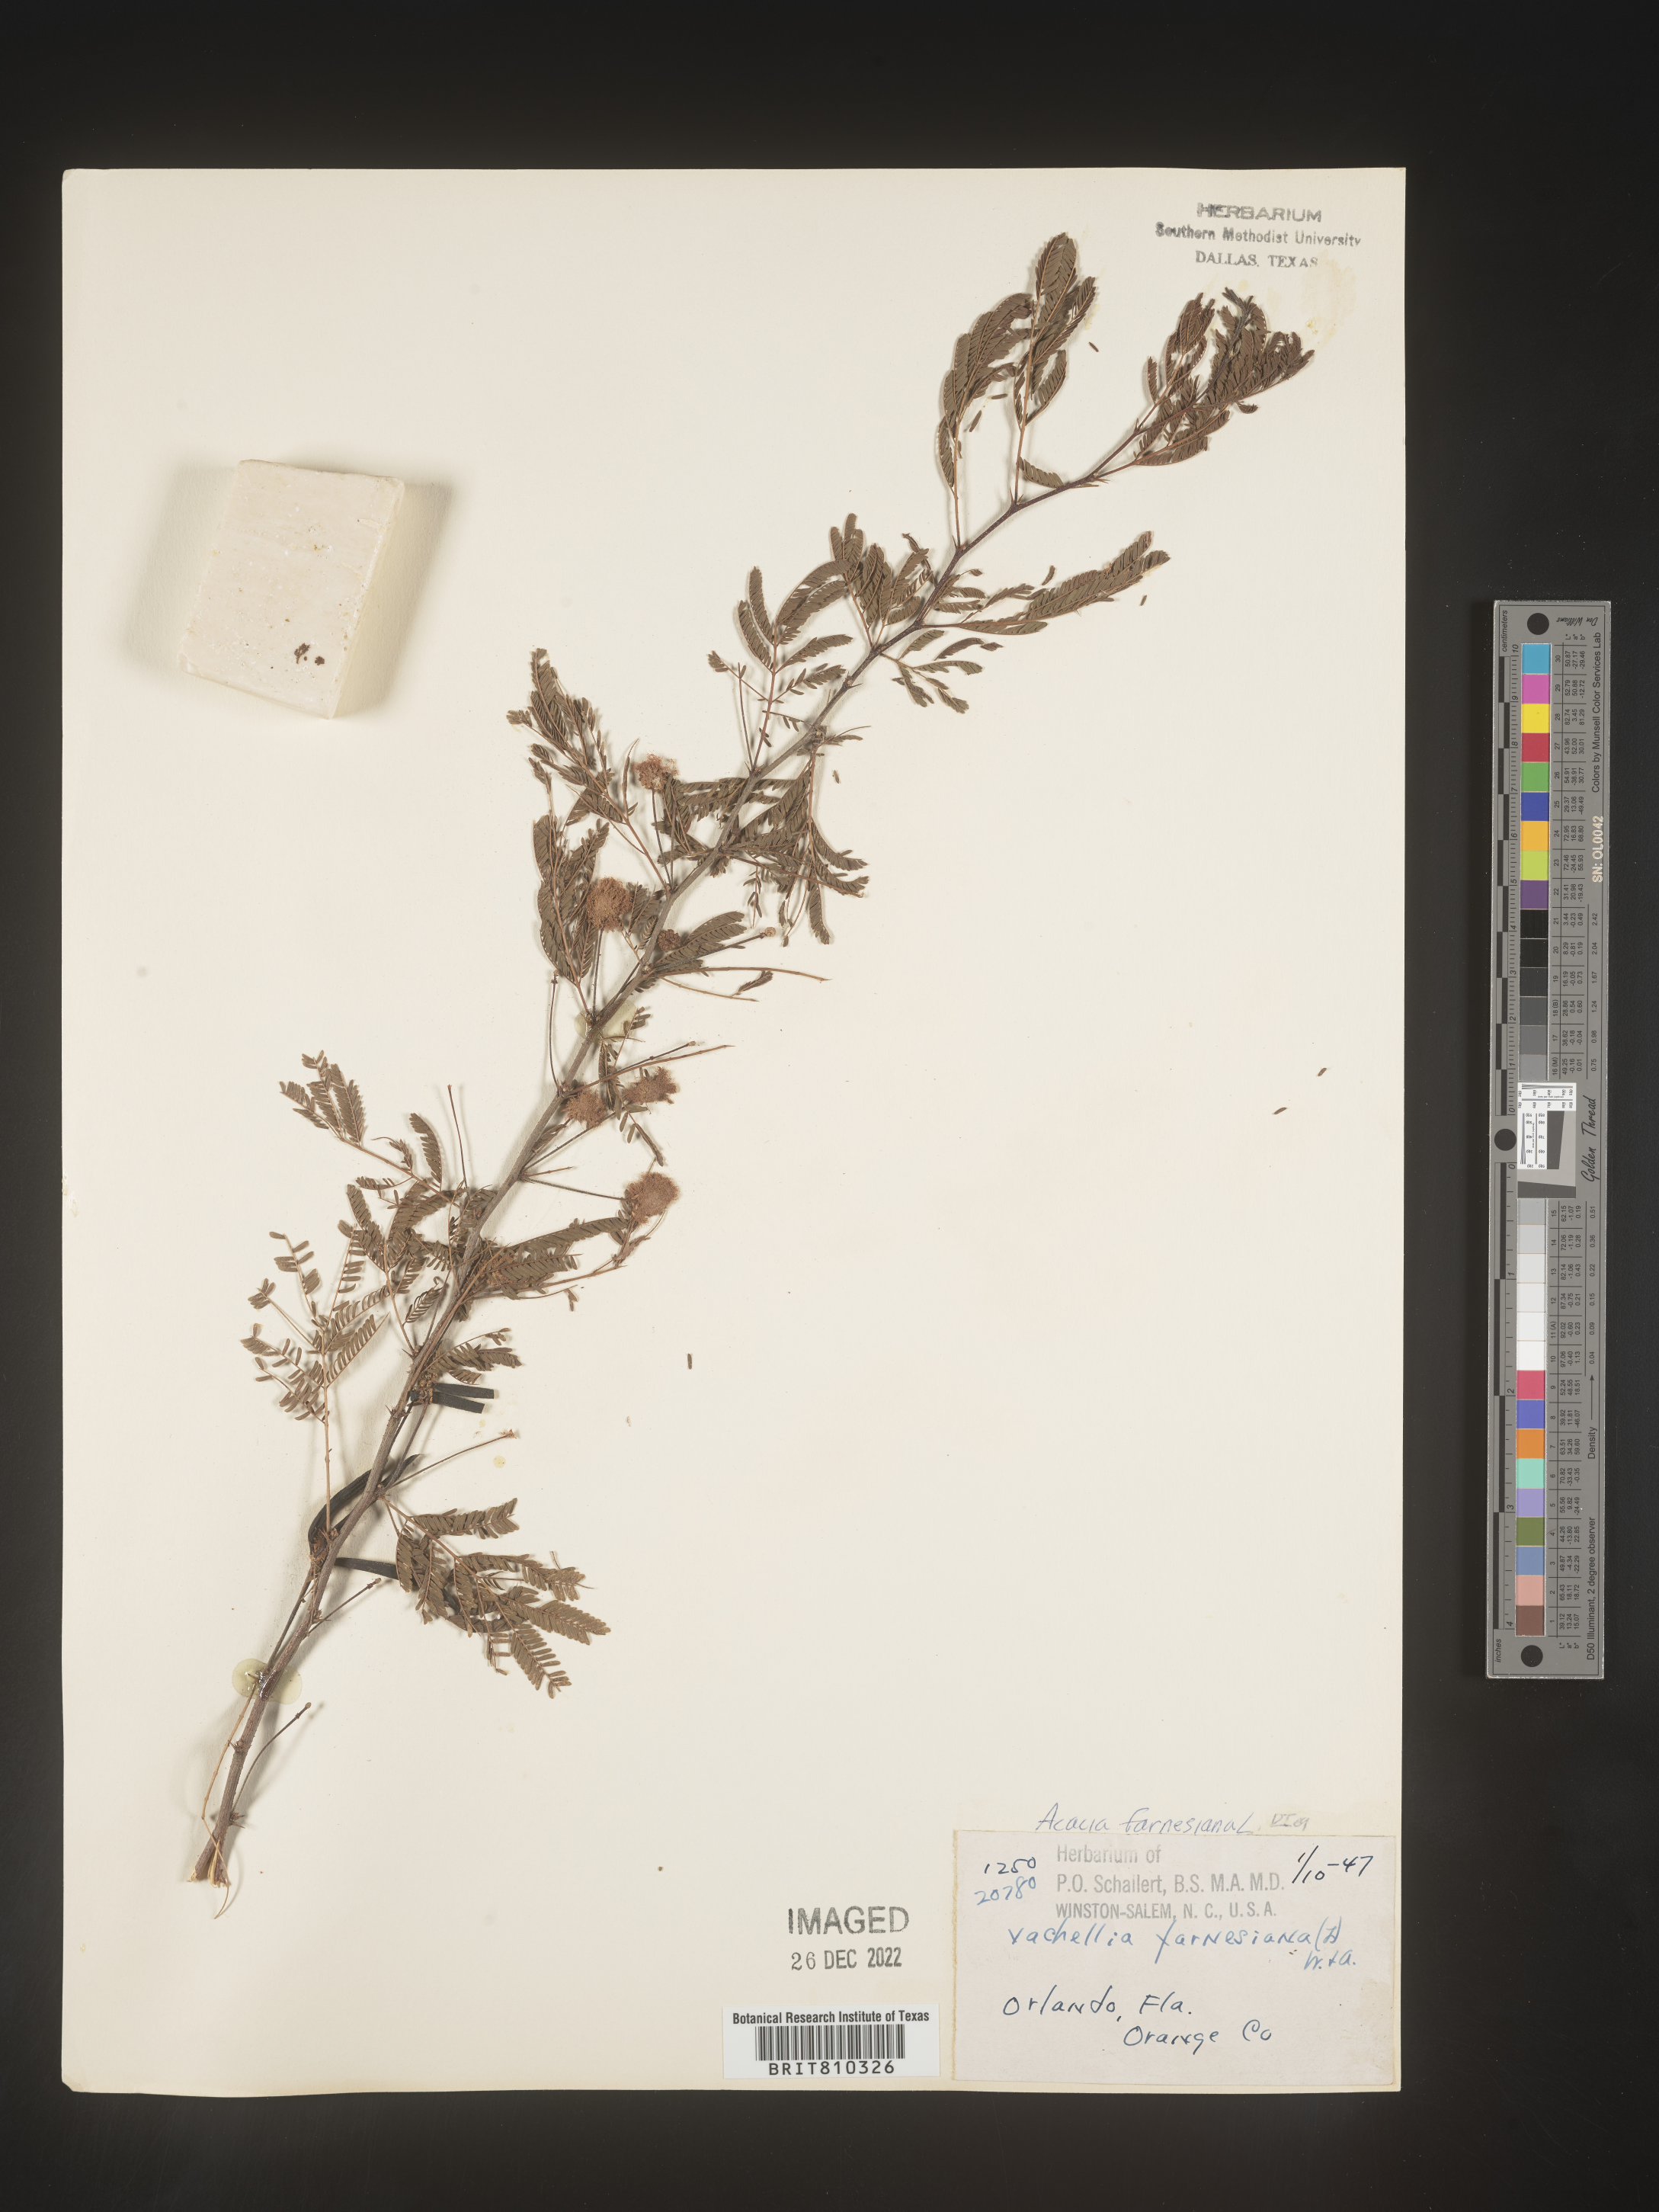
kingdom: Plantae
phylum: Tracheophyta
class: Magnoliopsida
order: Fabales
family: Fabaceae
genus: Acacia
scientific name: Acacia
